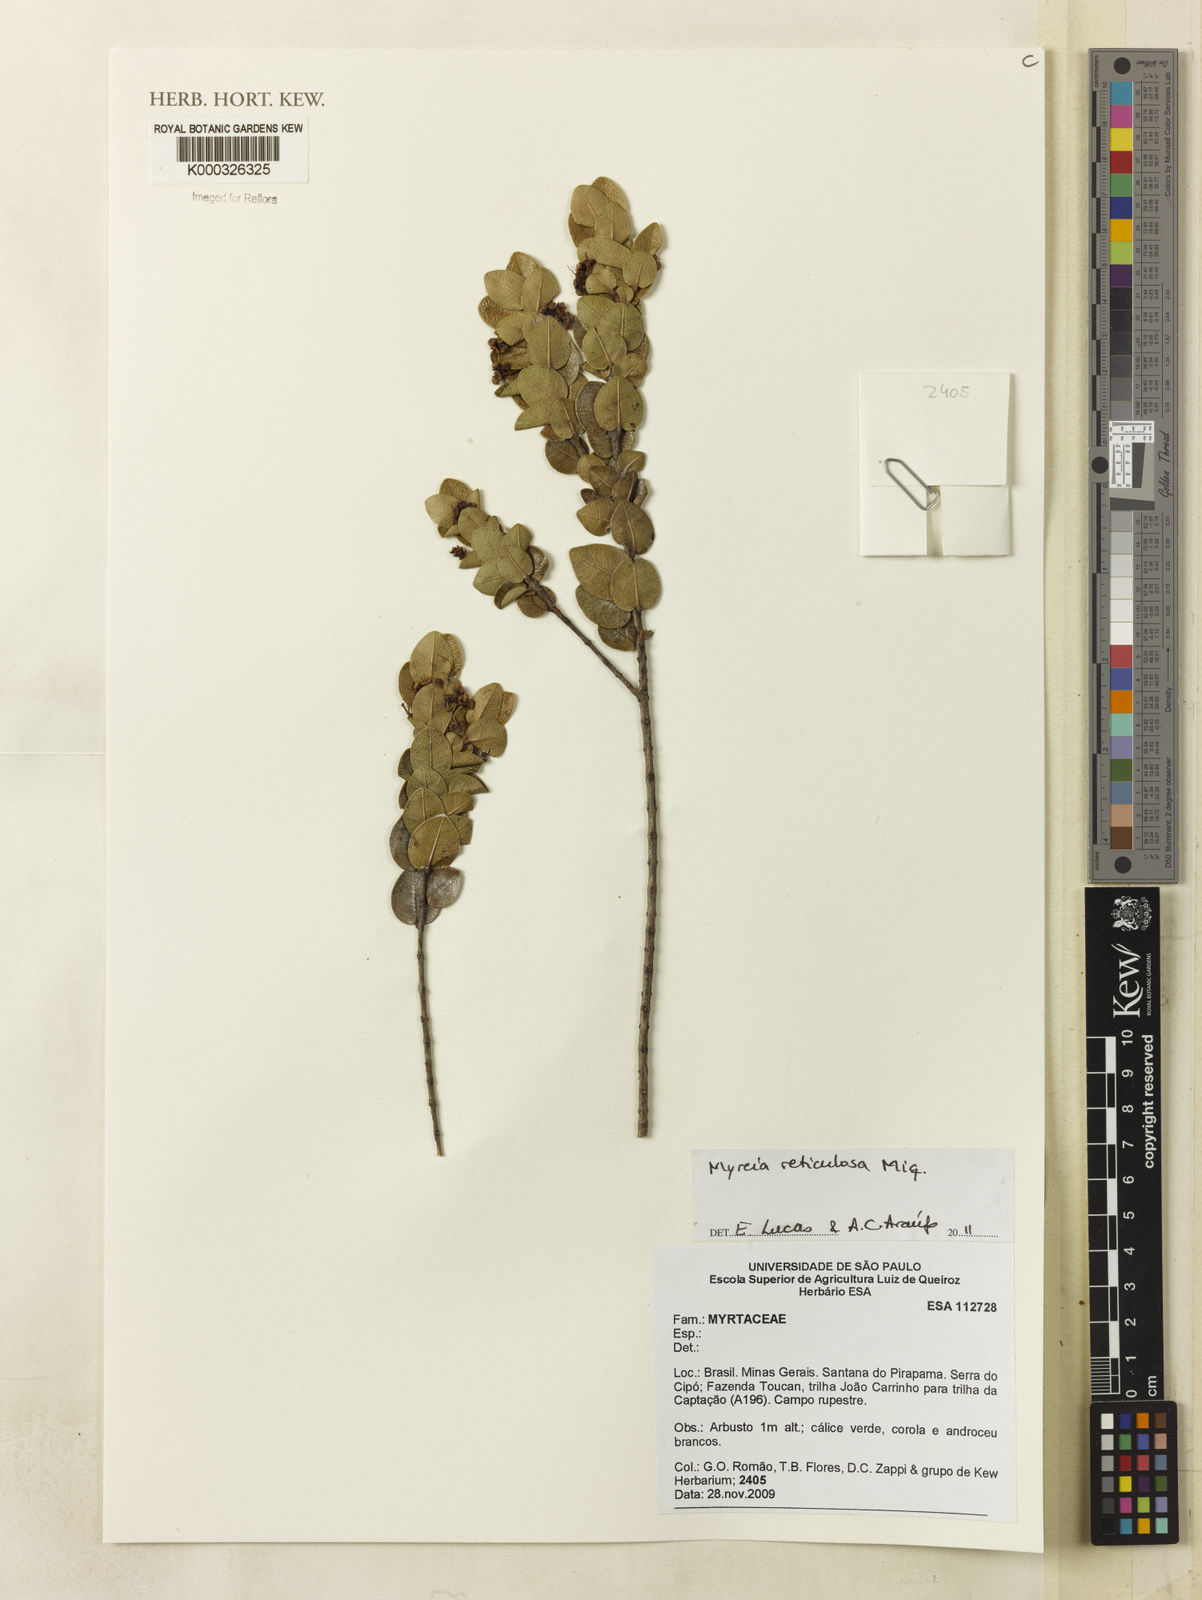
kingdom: Plantae
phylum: Tracheophyta
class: Magnoliopsida
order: Myrtales
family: Myrtaceae
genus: Myrcia
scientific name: Myrcia reticulosa
